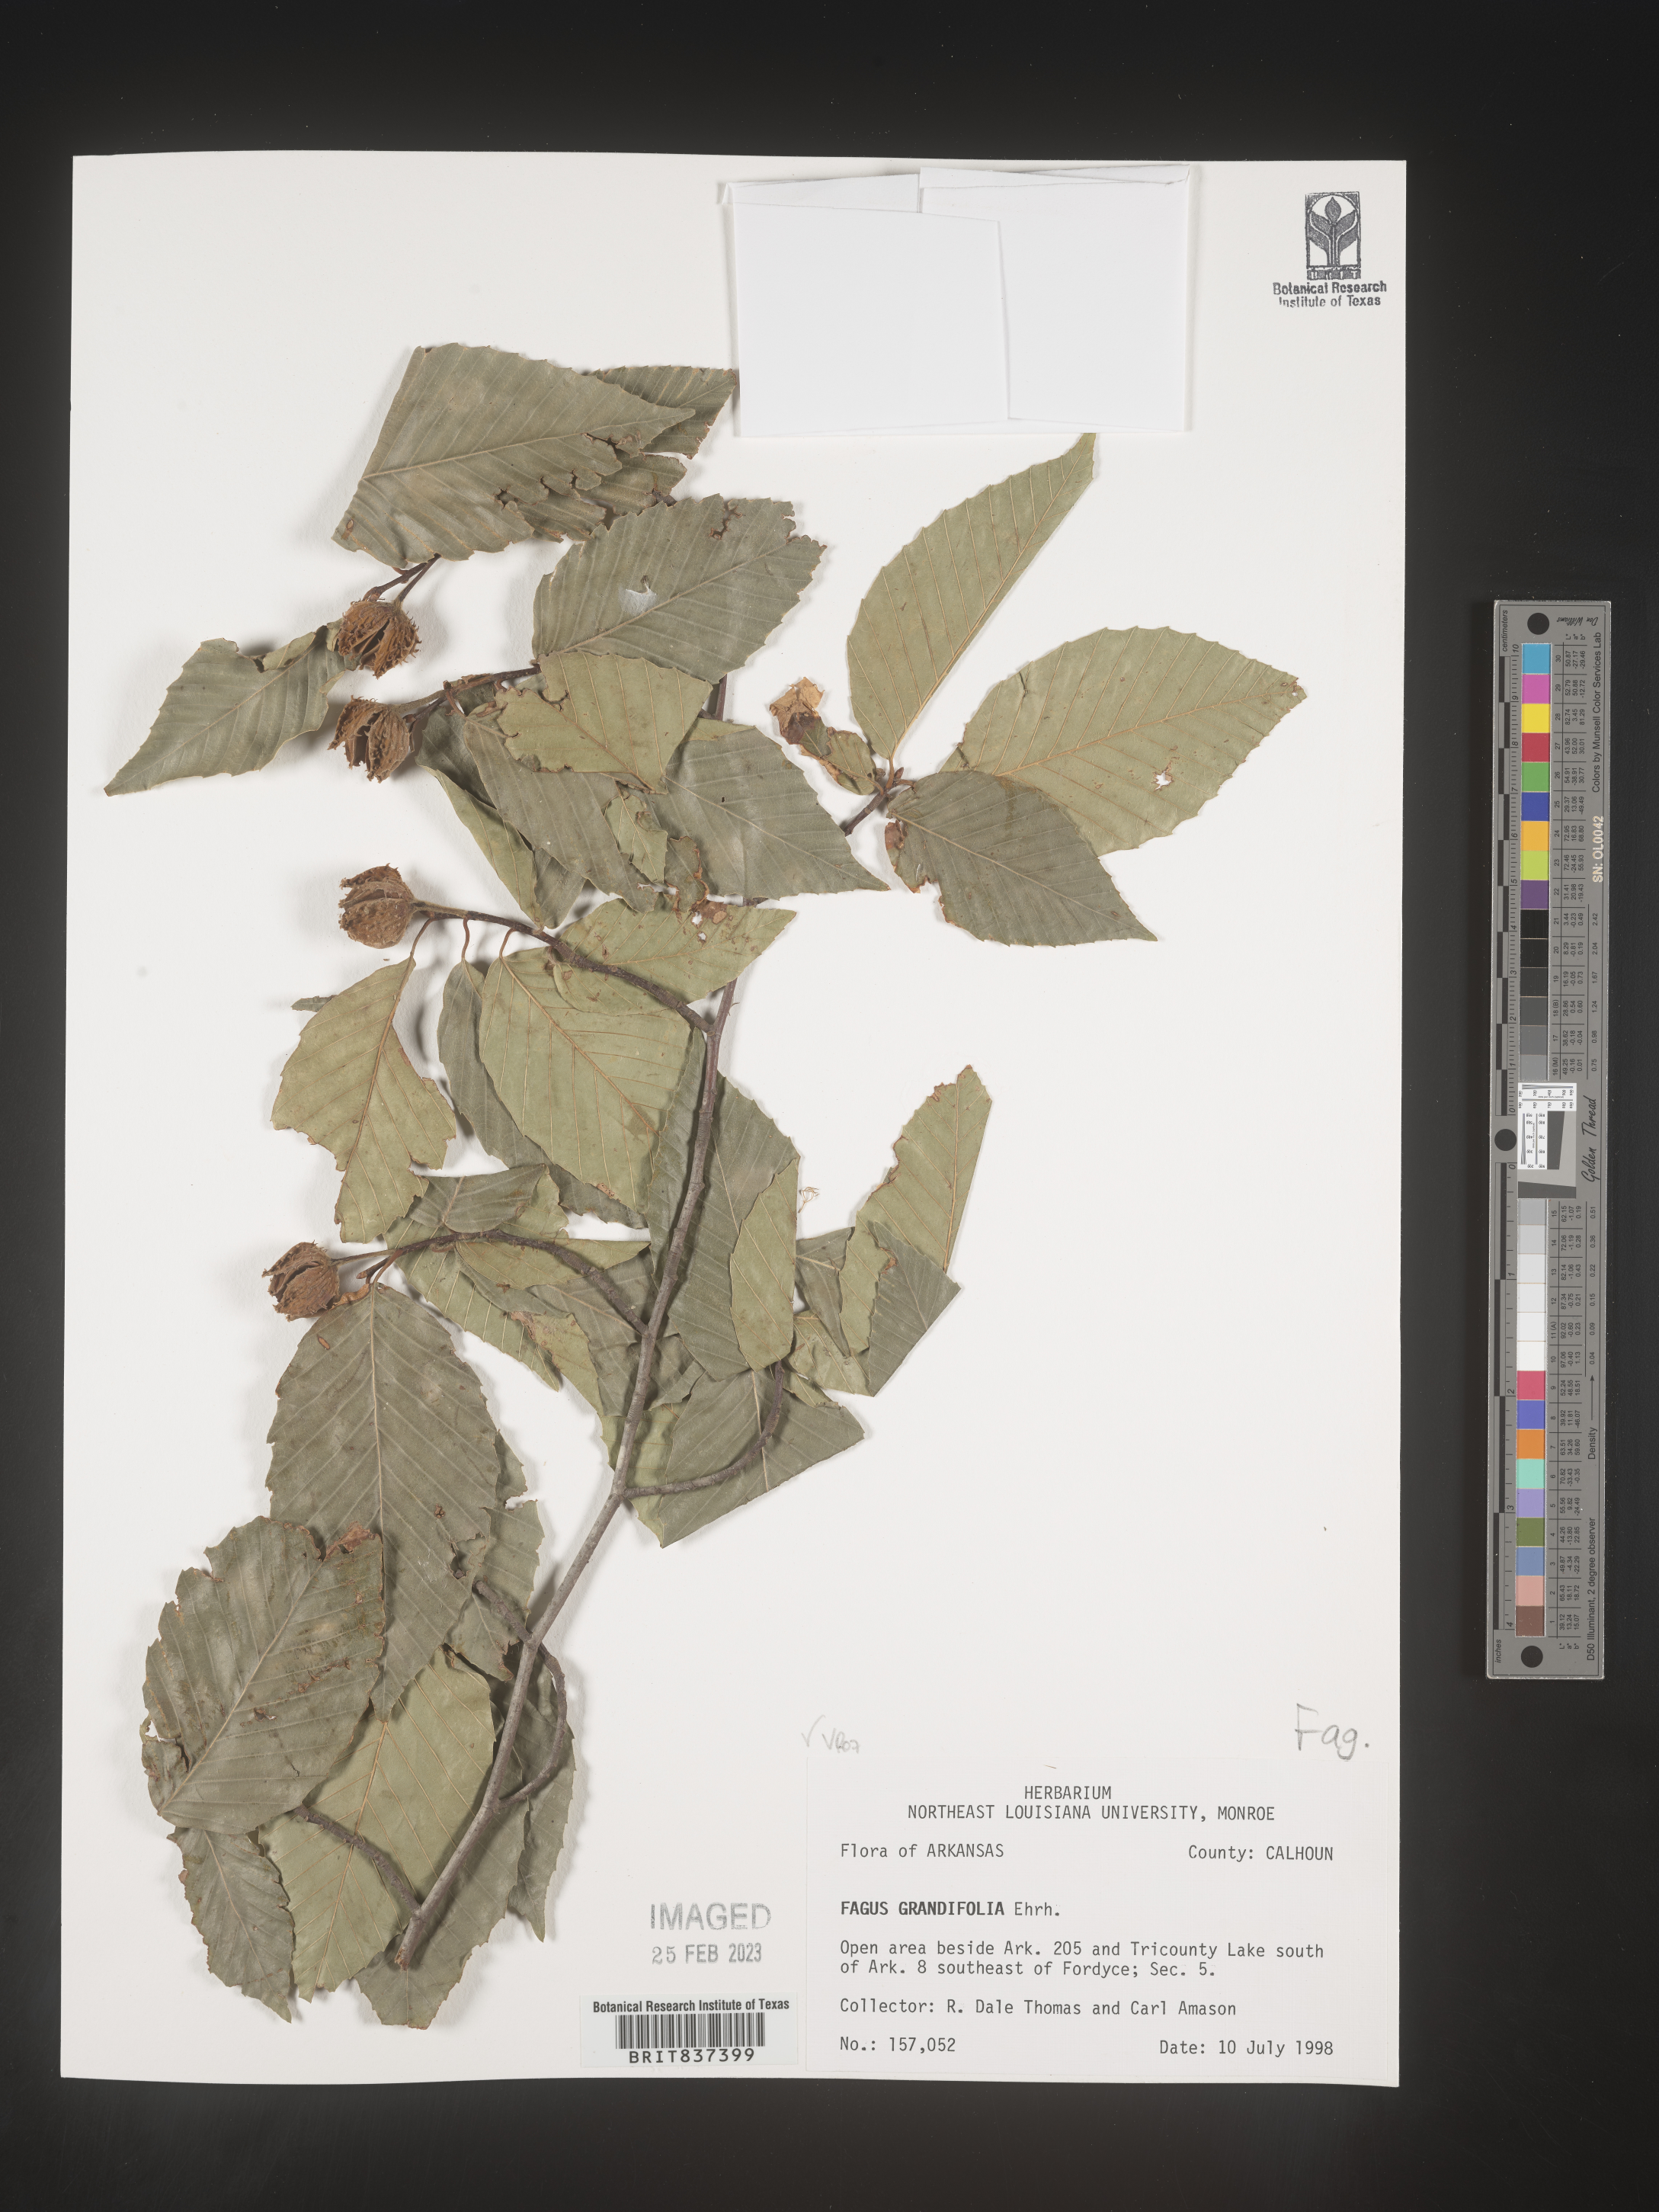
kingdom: Plantae
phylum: Tracheophyta
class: Magnoliopsida
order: Fagales
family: Fagaceae
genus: Fagus
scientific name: Fagus grandifolia
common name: American beech
